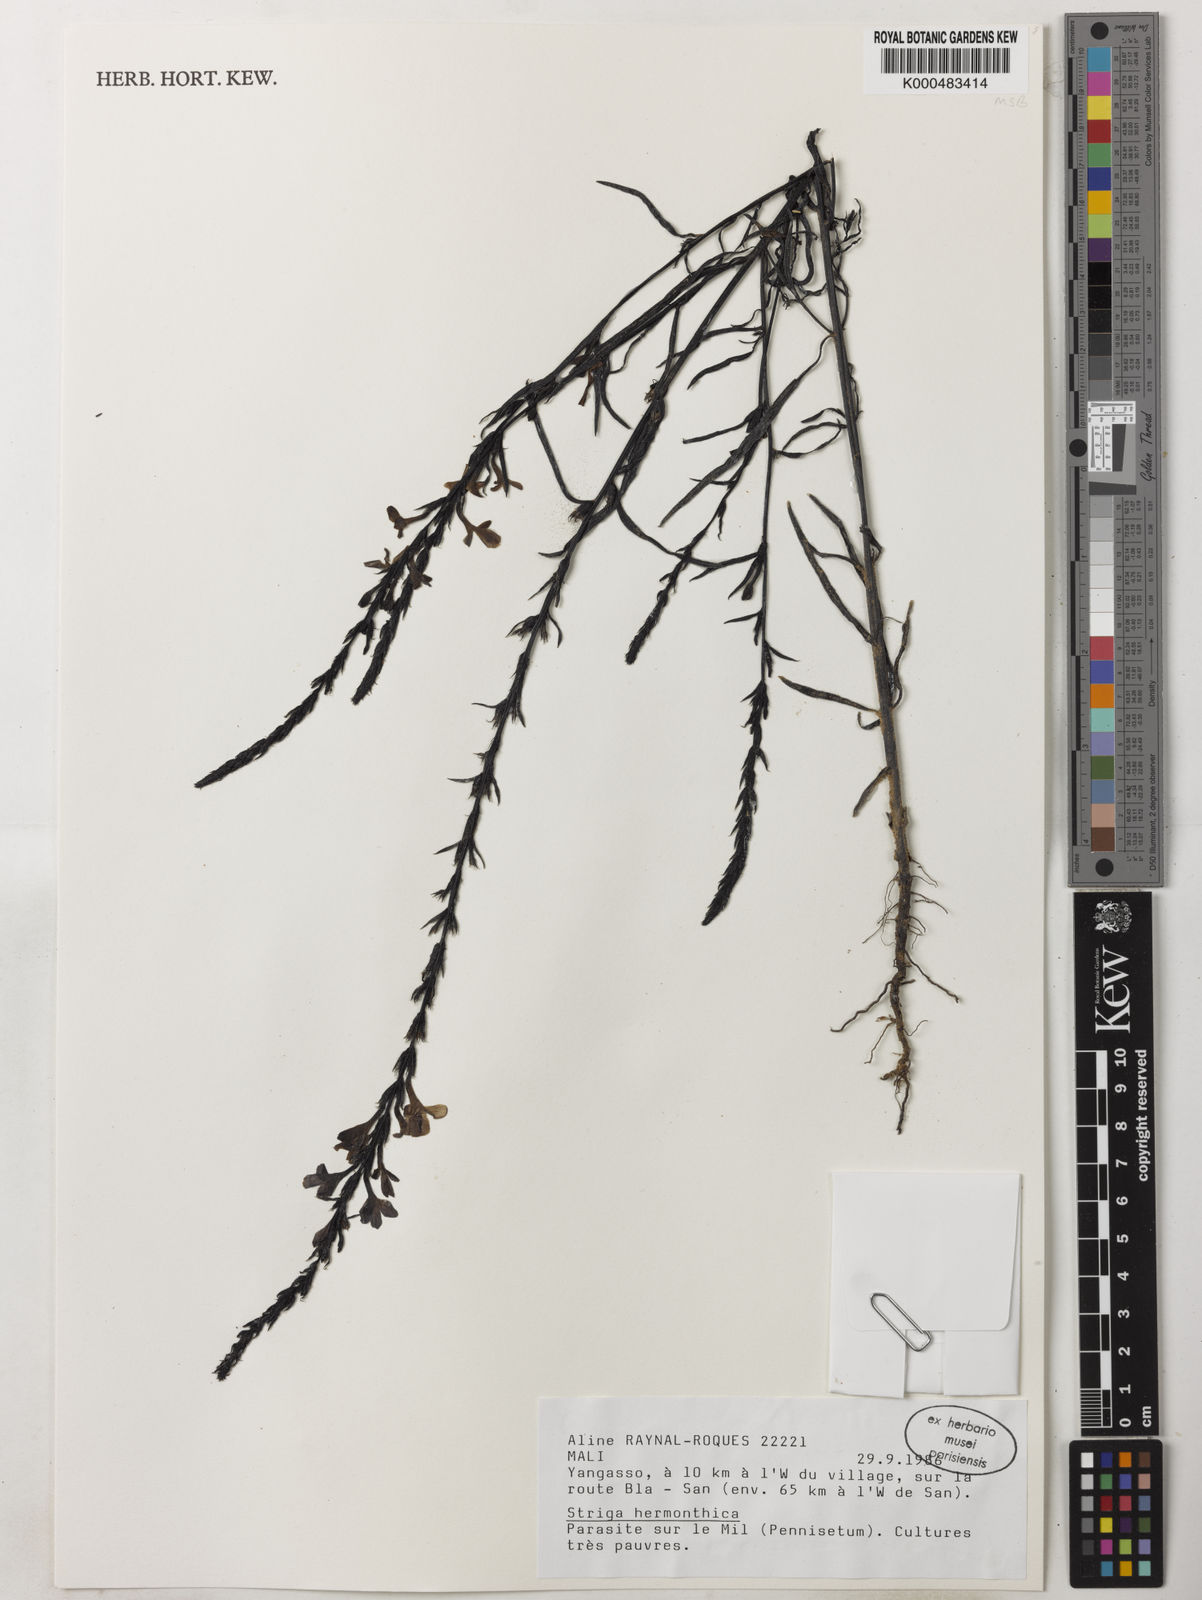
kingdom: Plantae
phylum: Tracheophyta
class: Magnoliopsida
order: Lamiales
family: Orobanchaceae
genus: Striga
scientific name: Striga hermonthica
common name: Purple witchweed
